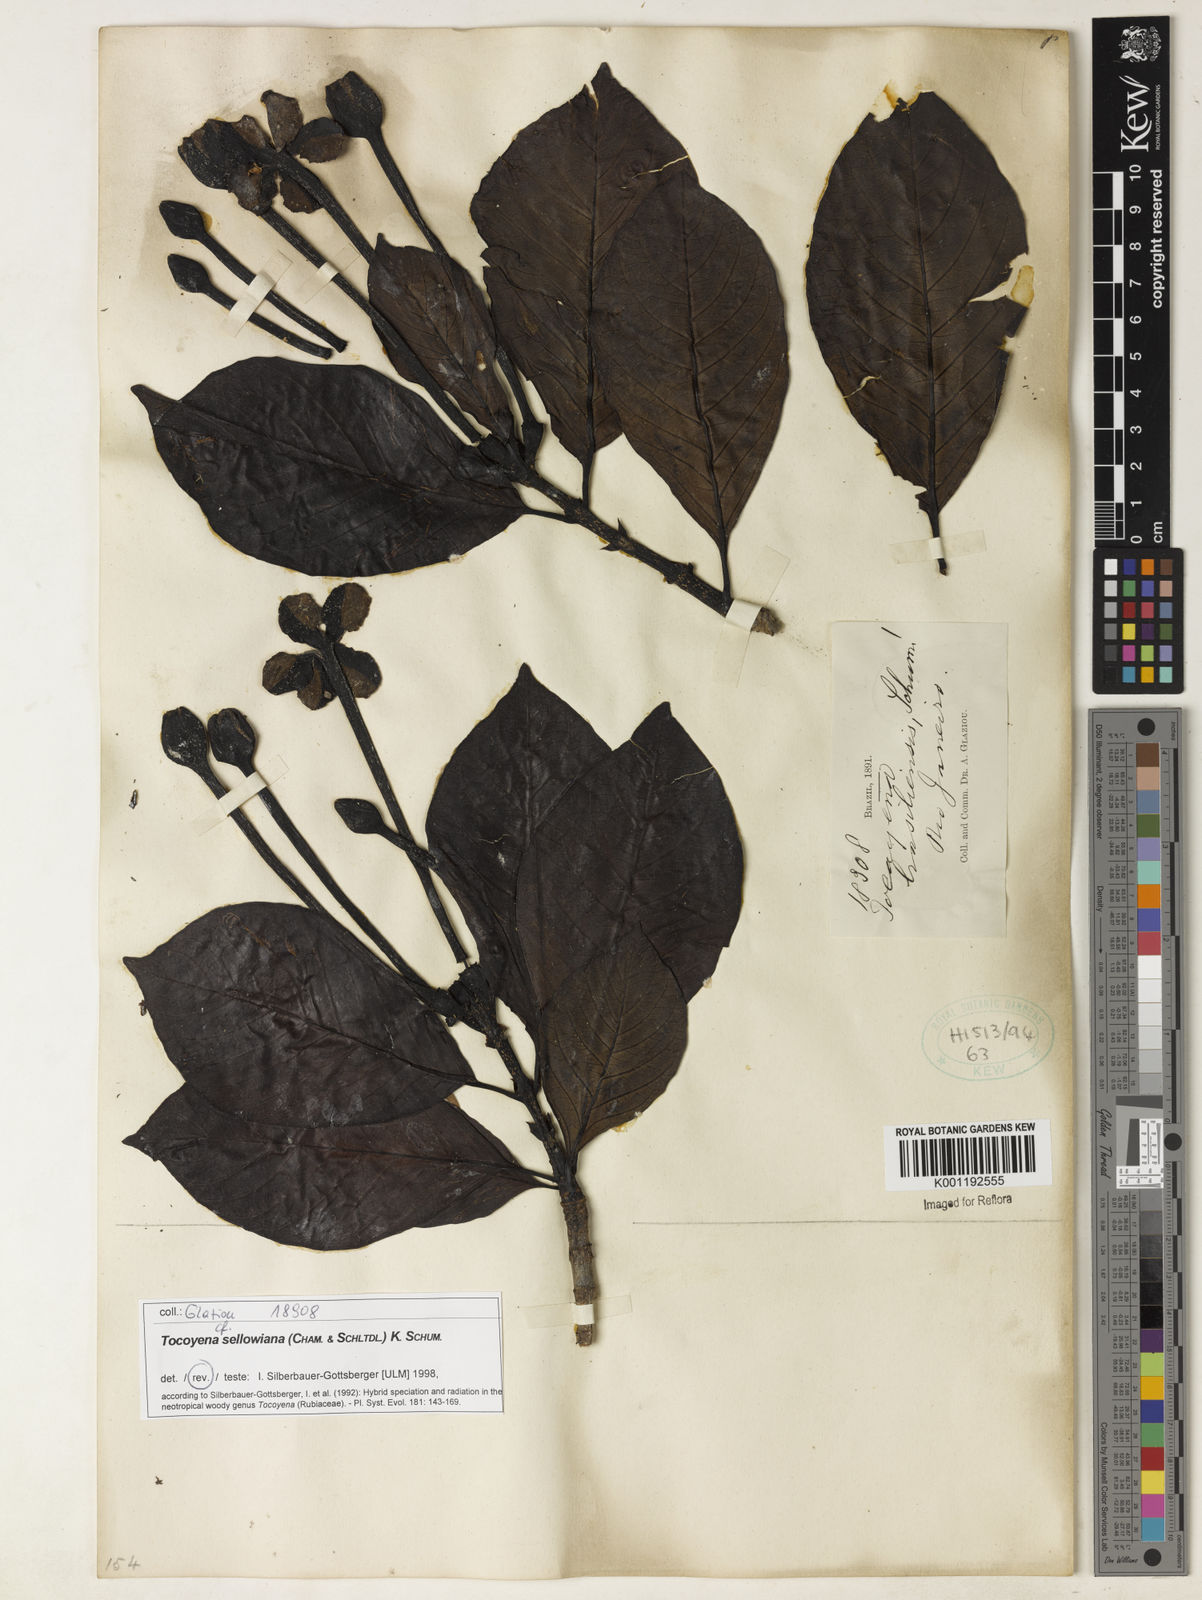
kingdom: Plantae
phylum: Tracheophyta
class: Magnoliopsida
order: Gentianales
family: Rubiaceae
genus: Tocoyena
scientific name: Tocoyena sellowiana
